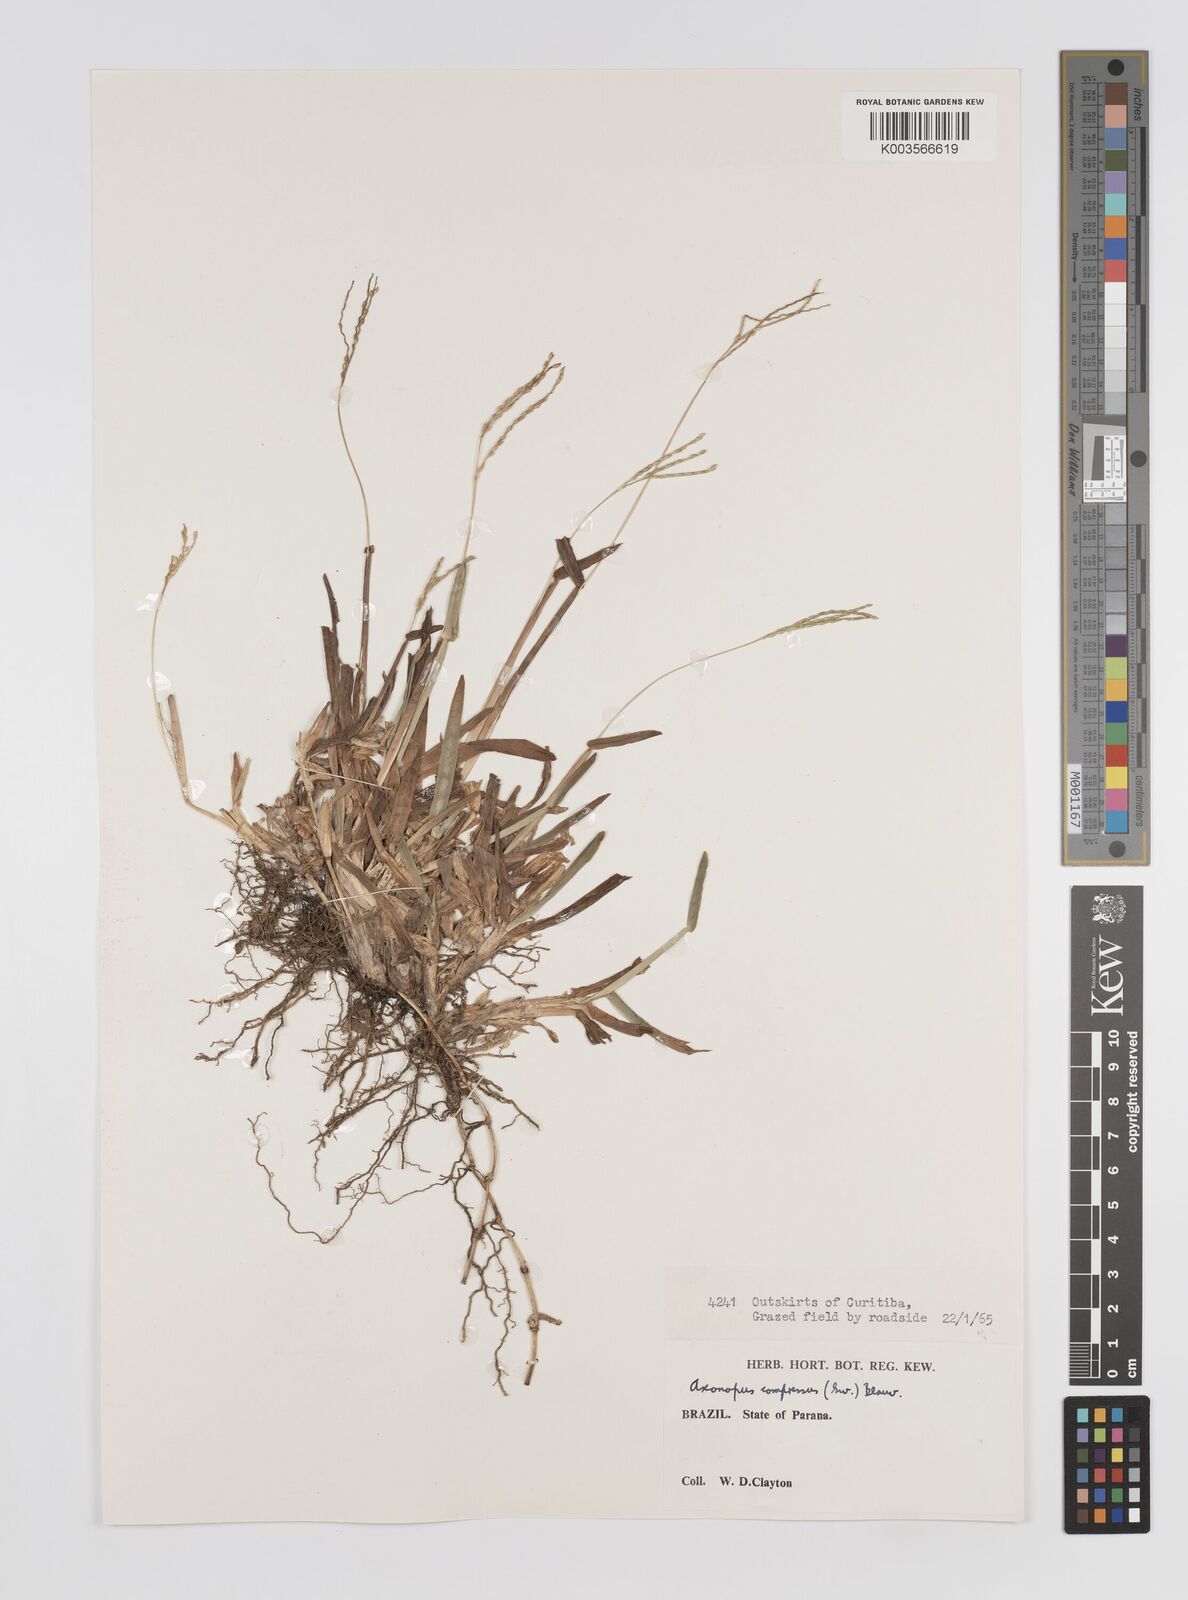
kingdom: Plantae
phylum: Tracheophyta
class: Liliopsida
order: Poales
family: Poaceae
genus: Axonopus
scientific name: Axonopus compressus
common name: American carpet grass
